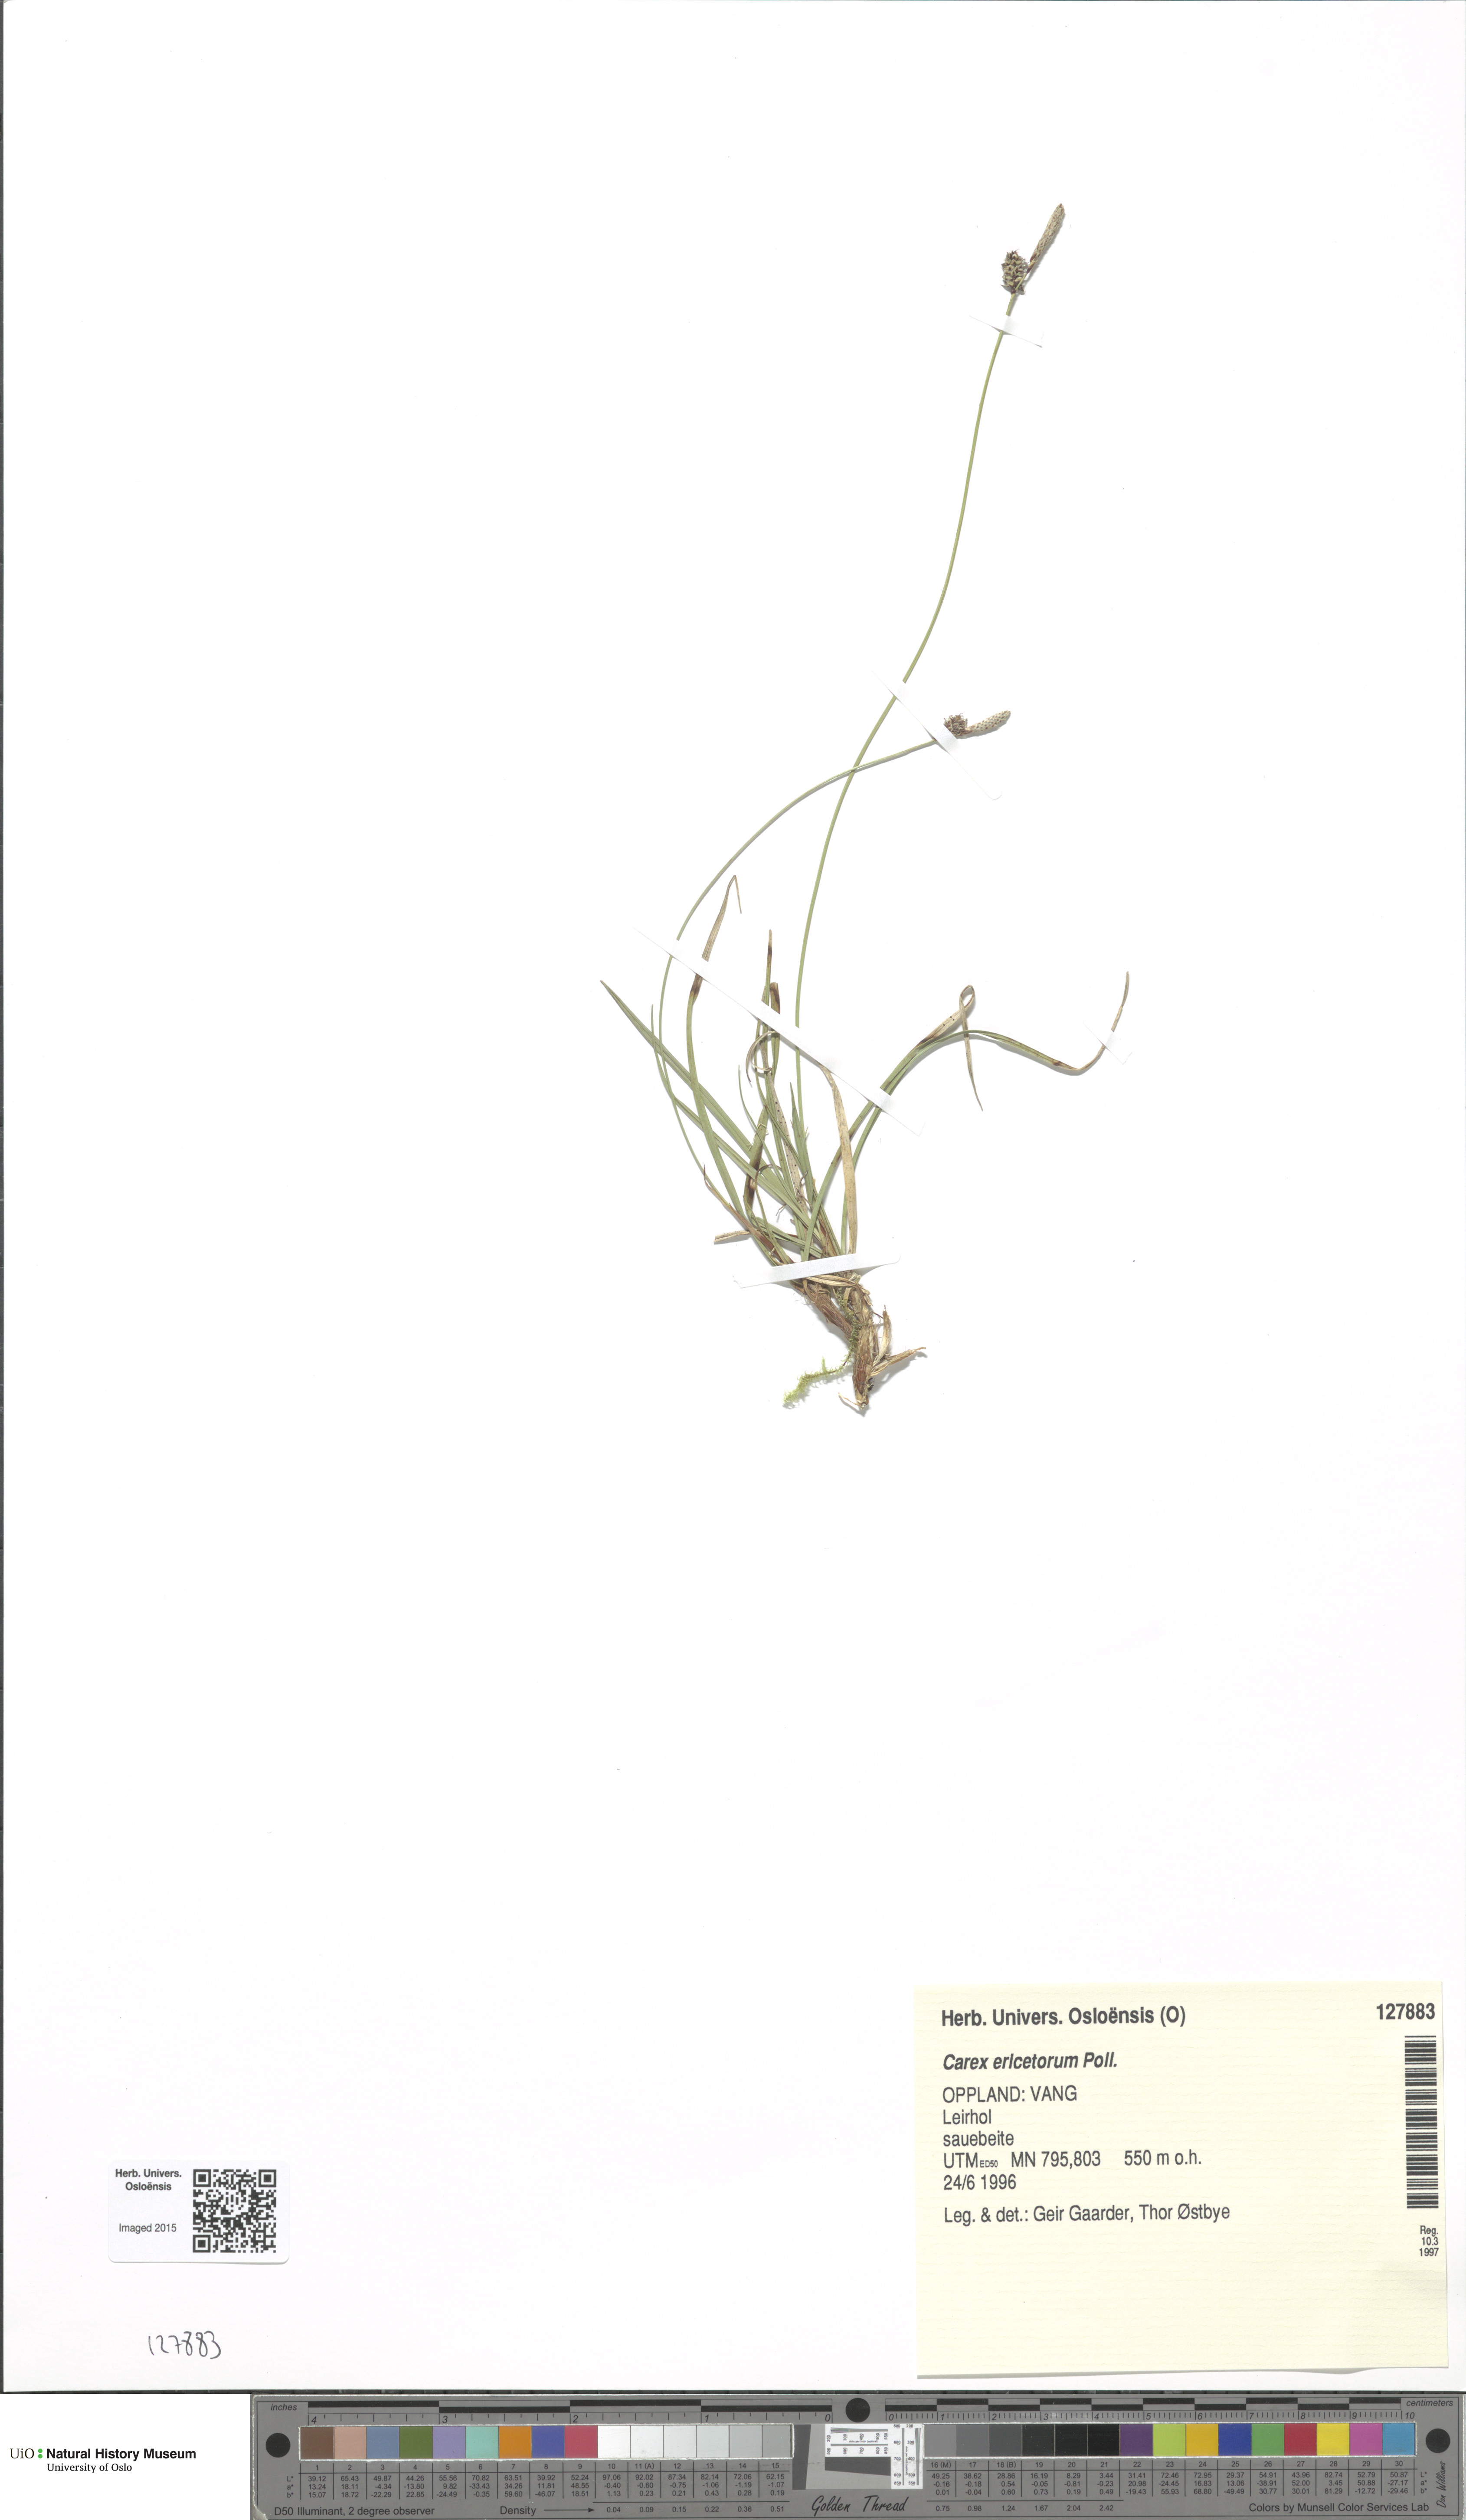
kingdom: Plantae
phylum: Tracheophyta
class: Liliopsida
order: Poales
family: Cyperaceae
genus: Carex
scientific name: Carex ericetorum
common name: Rare spring-sedge
